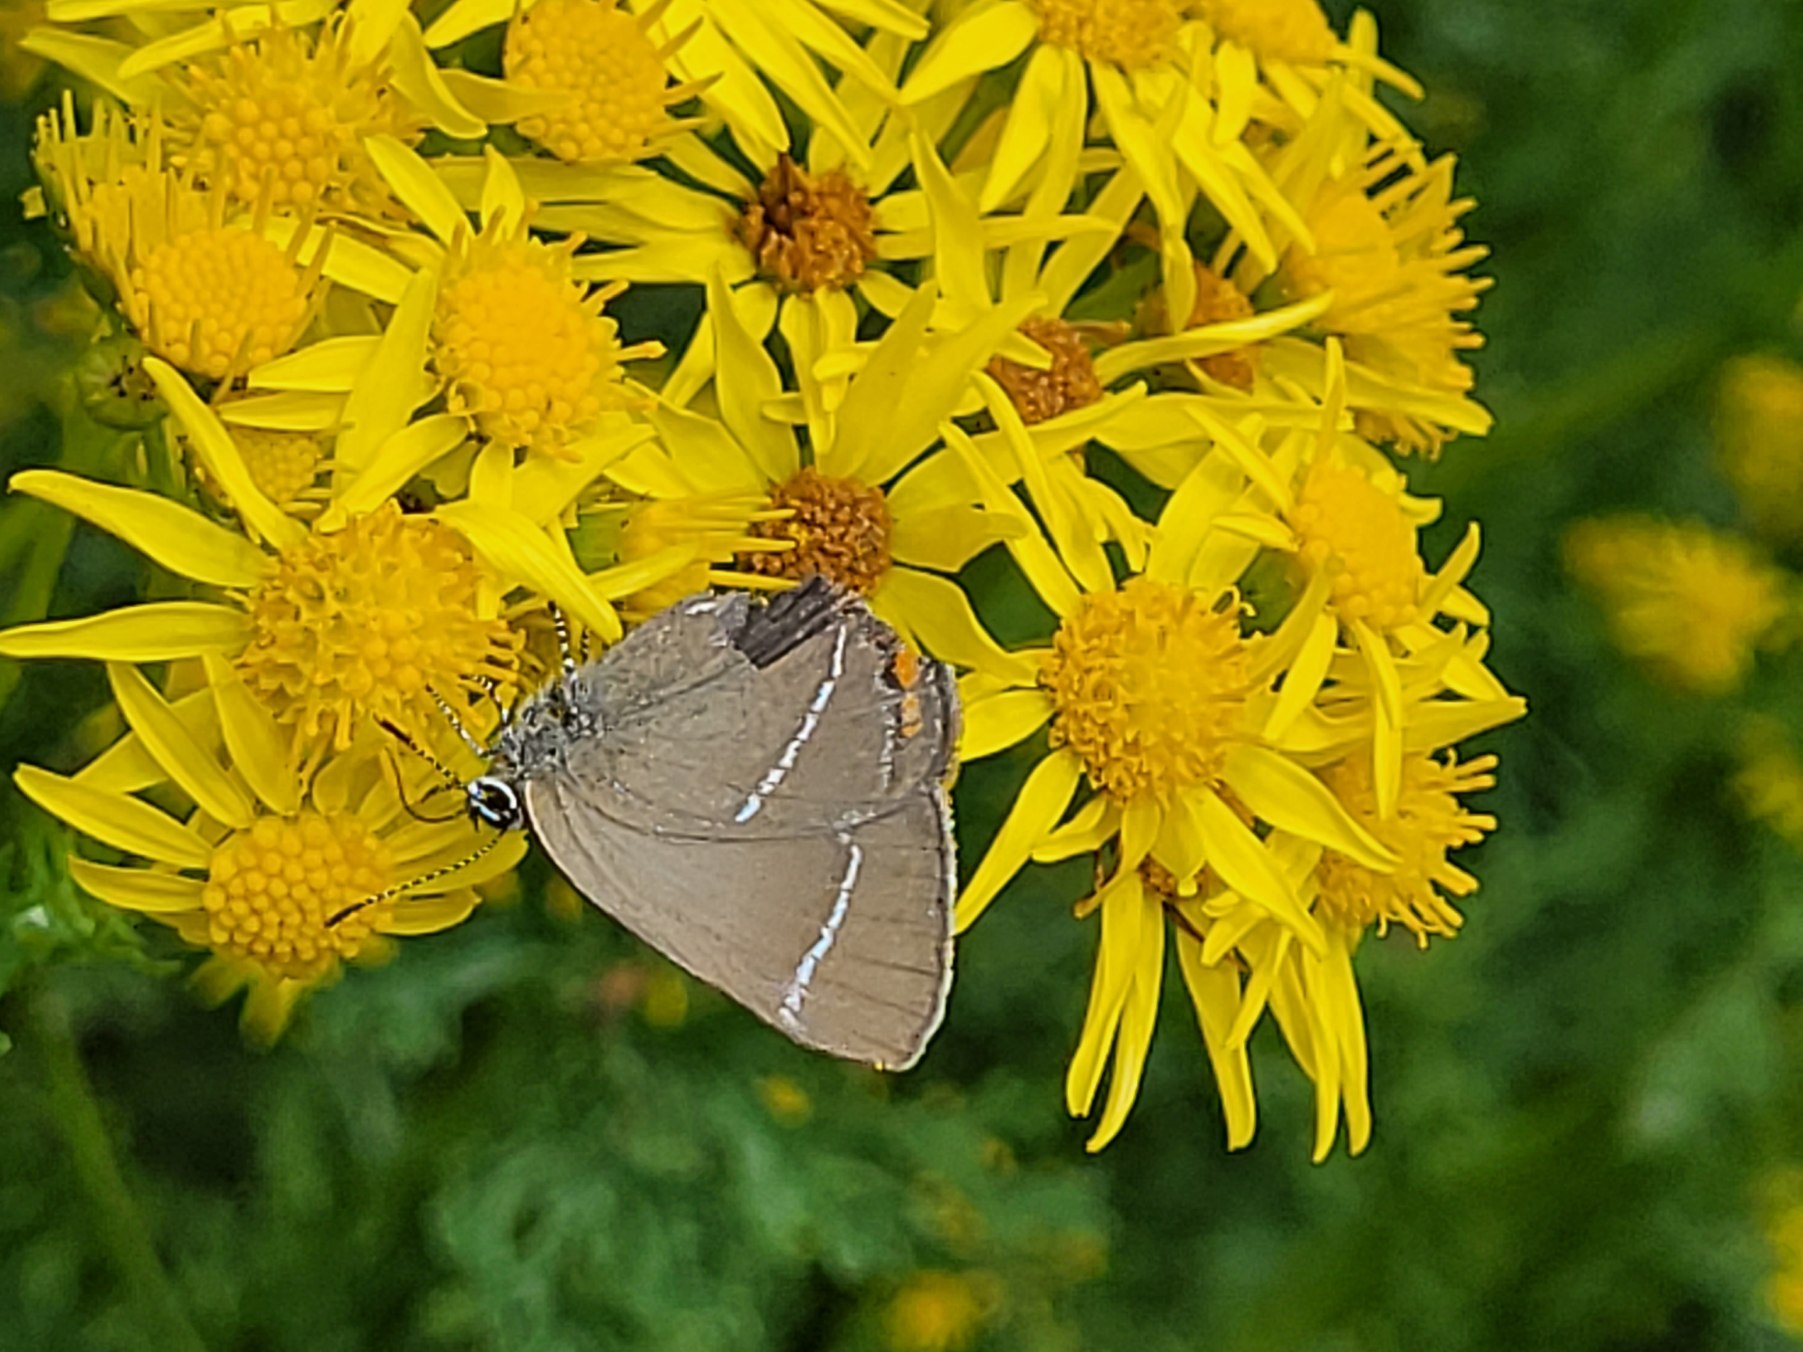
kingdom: Animalia
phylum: Arthropoda
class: Insecta
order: Lepidoptera
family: Lycaenidae
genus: Satyrium
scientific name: Satyrium w-album
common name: Det hvide W
